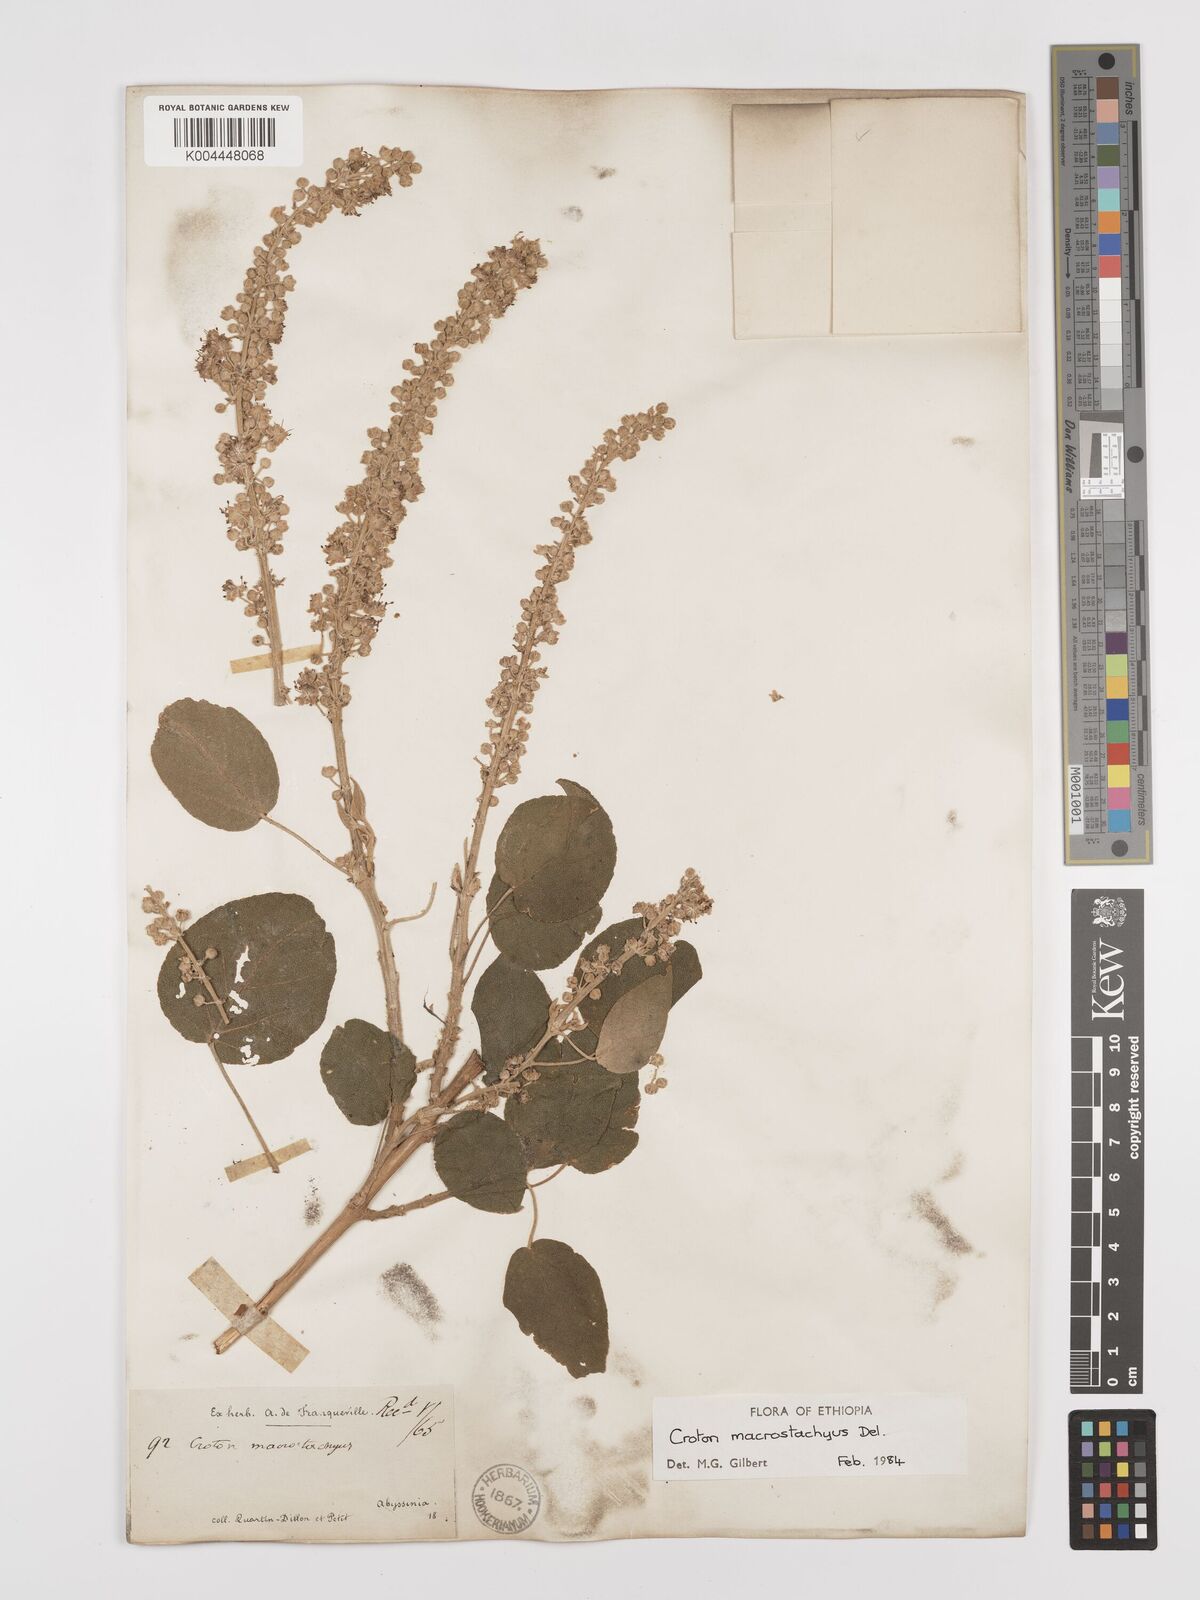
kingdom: Plantae
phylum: Tracheophyta
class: Magnoliopsida
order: Malpighiales
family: Euphorbiaceae
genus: Croton
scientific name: Croton macrostachyus
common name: Mutundu
